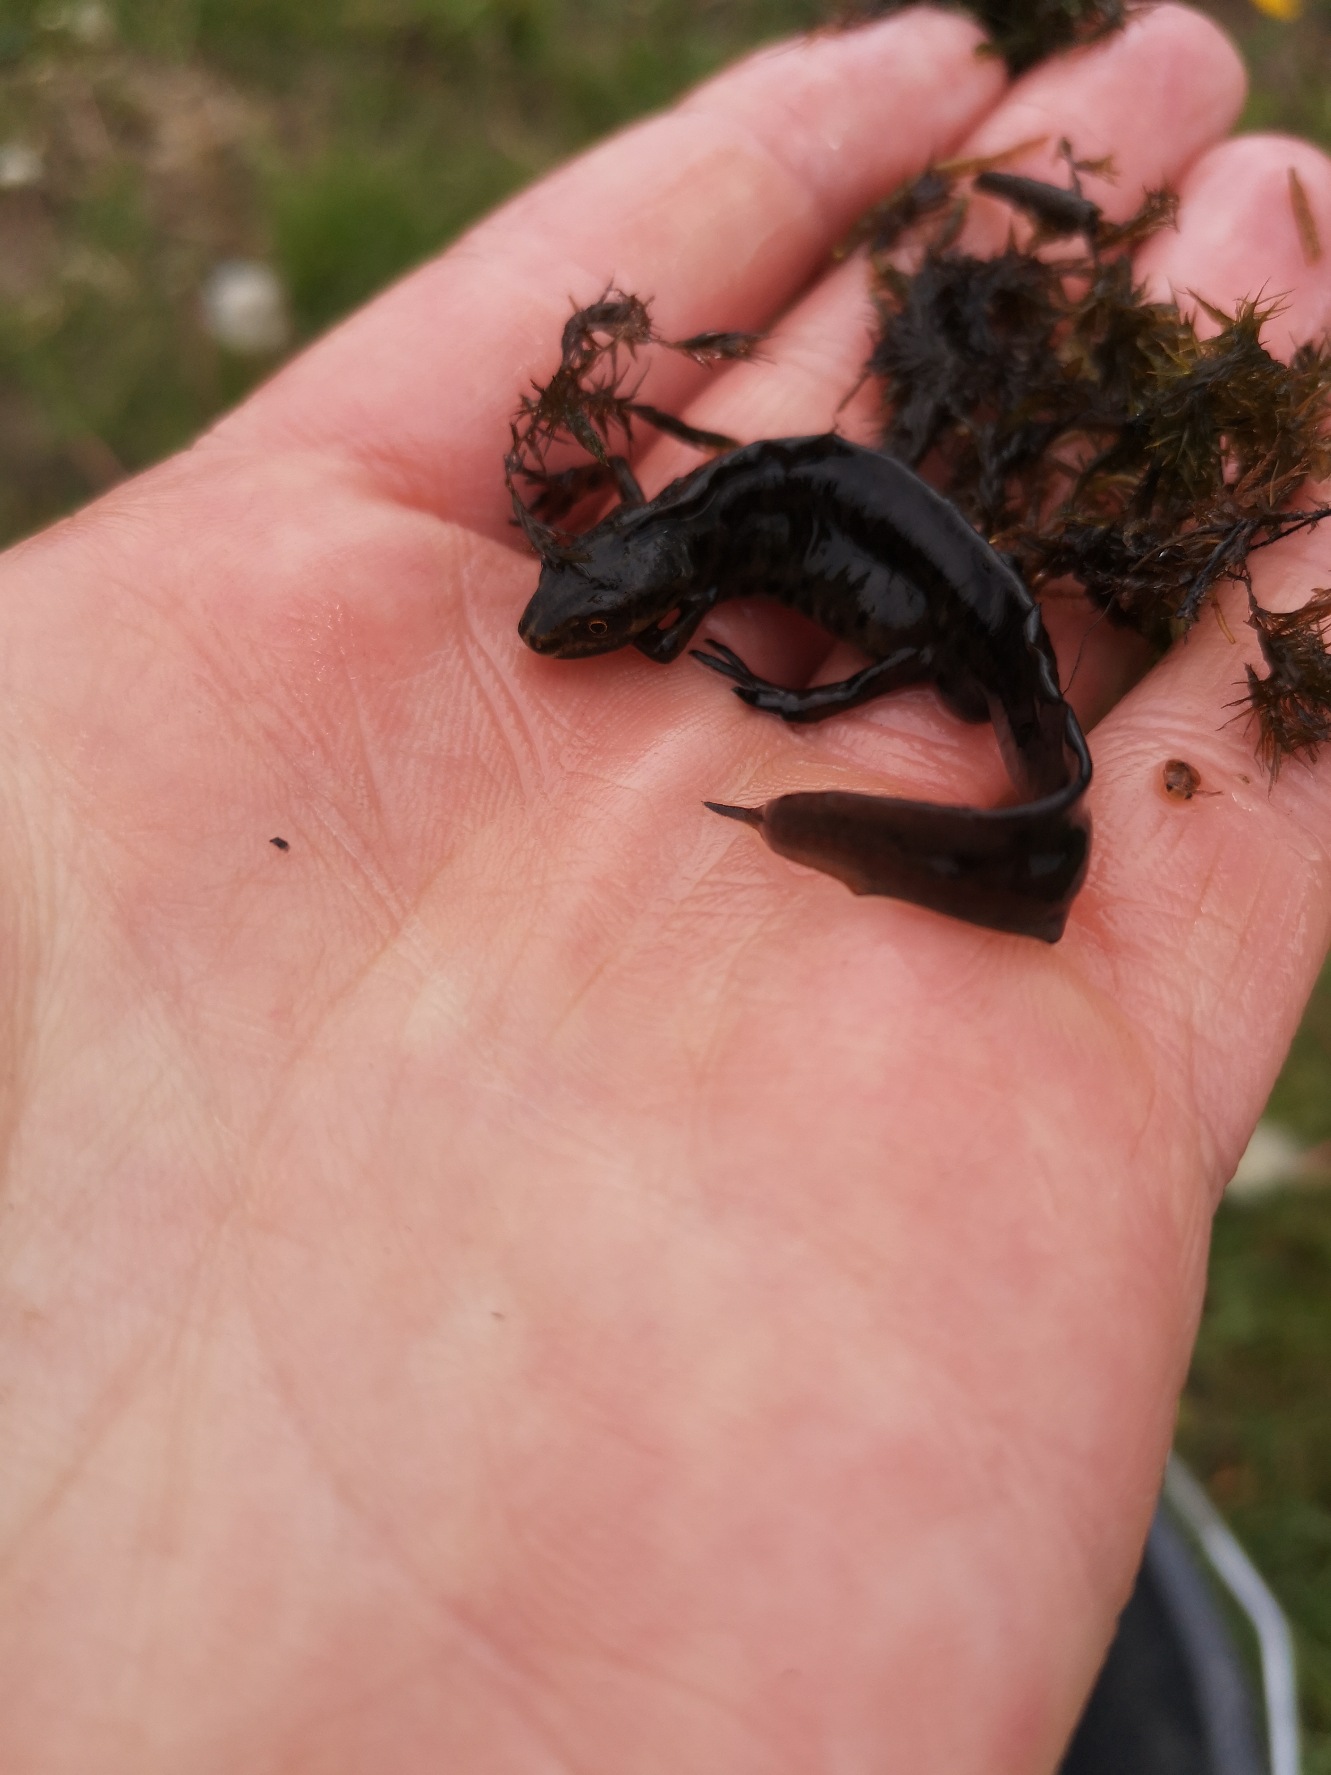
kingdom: Animalia
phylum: Chordata
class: Amphibia
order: Caudata
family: Salamandridae
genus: Lissotriton
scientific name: Lissotriton vulgaris
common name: Lille vandsalamander
